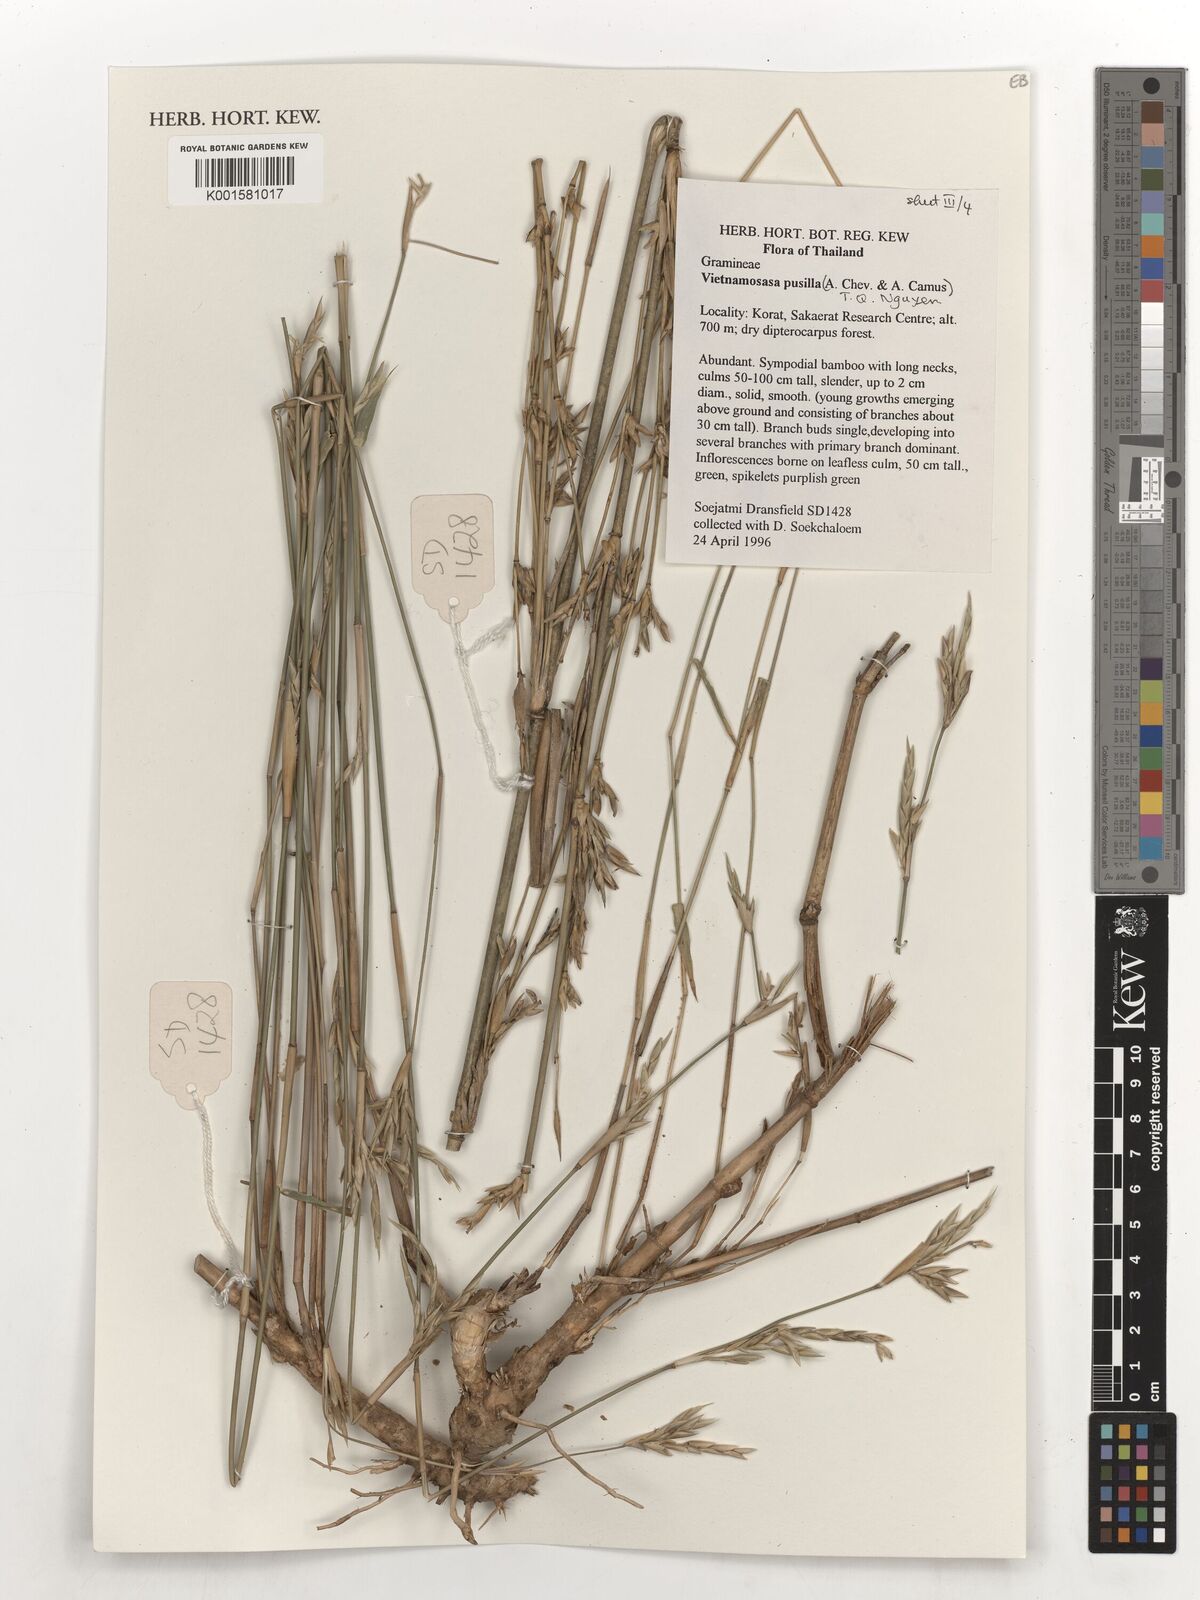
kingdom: Plantae
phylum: Tracheophyta
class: Liliopsida
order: Poales
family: Poaceae
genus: Vietnamosasa
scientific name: Vietnamosasa pusilla
